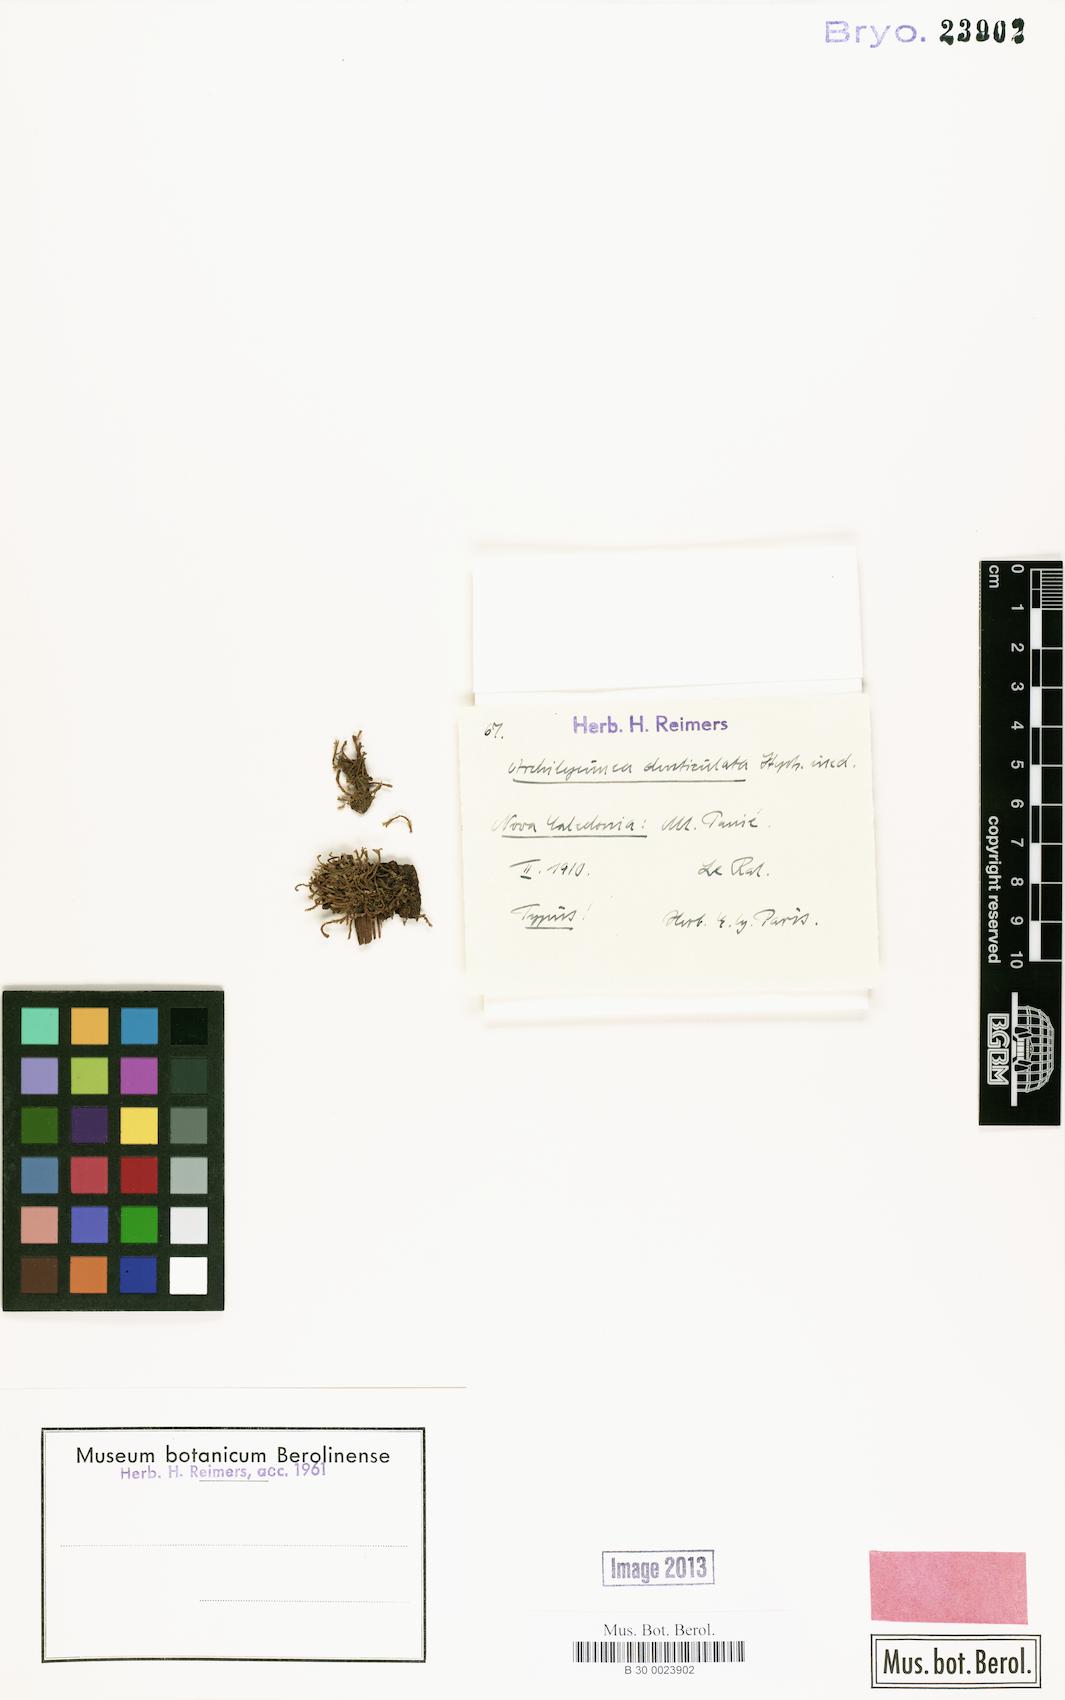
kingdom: Plantae
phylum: Marchantiophyta
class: Jungermanniopsida
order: Porellales
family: Lejeuneaceae
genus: Spruceanthus
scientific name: Spruceanthus planiusculus
